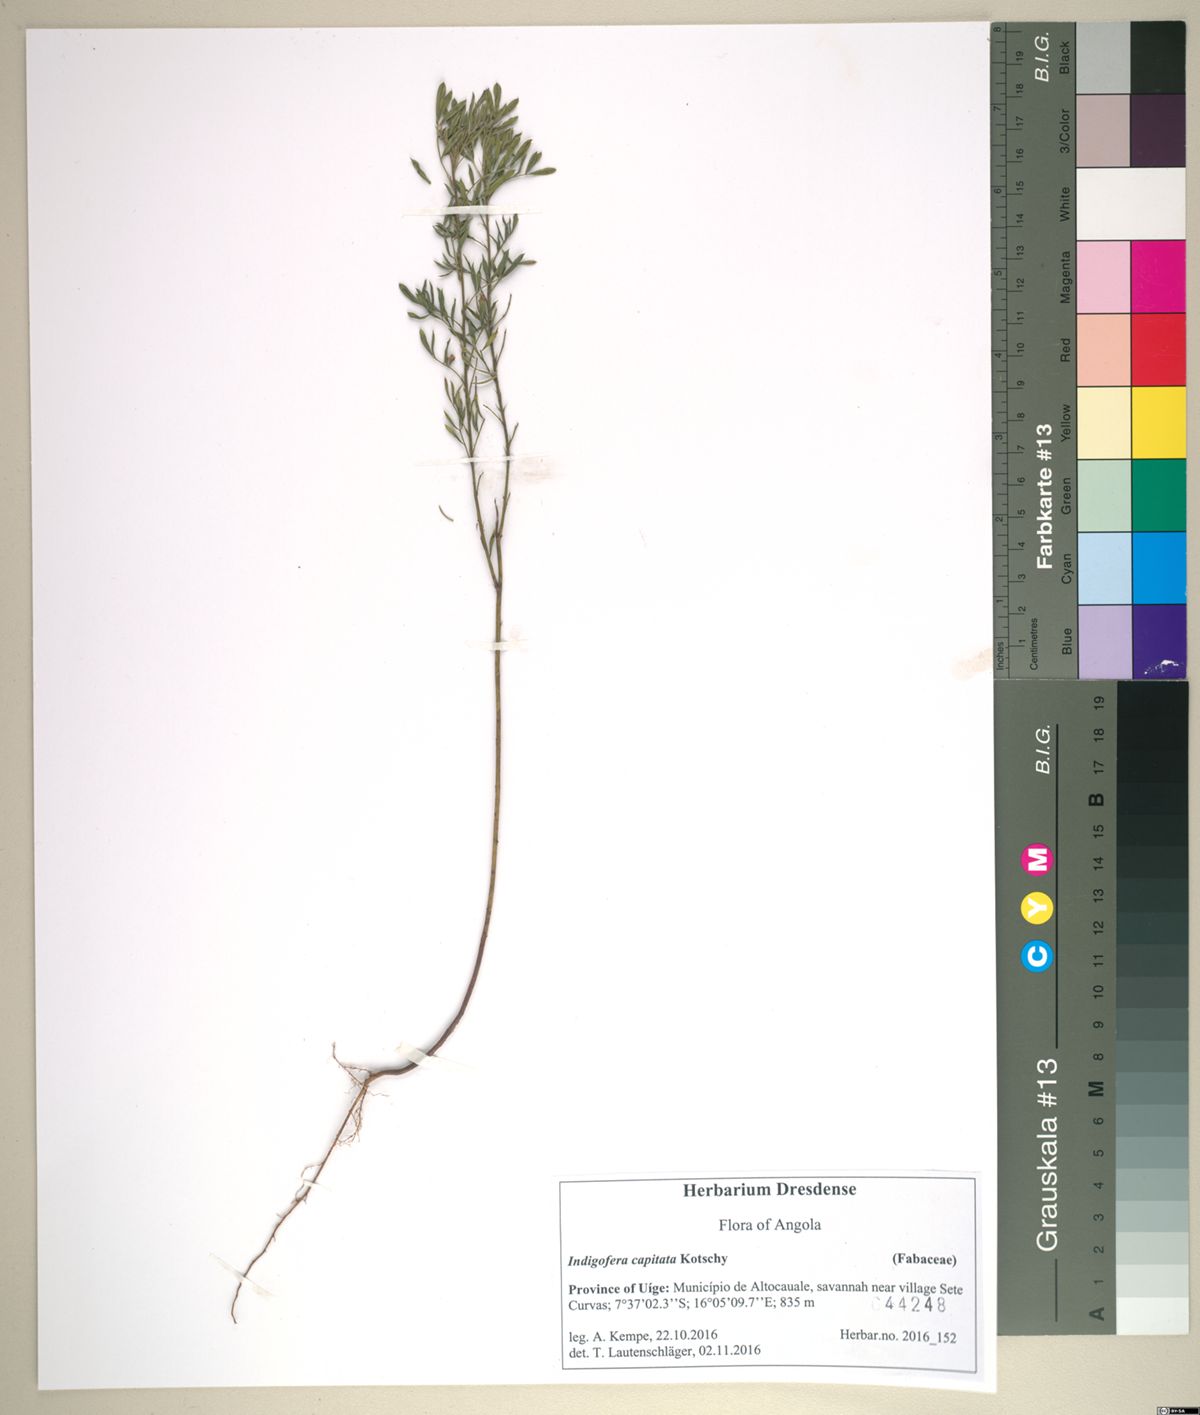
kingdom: Plantae
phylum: Tracheophyta
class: Magnoliopsida
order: Fabales
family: Fabaceae
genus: Indigofera
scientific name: Indigofera paracapitata
